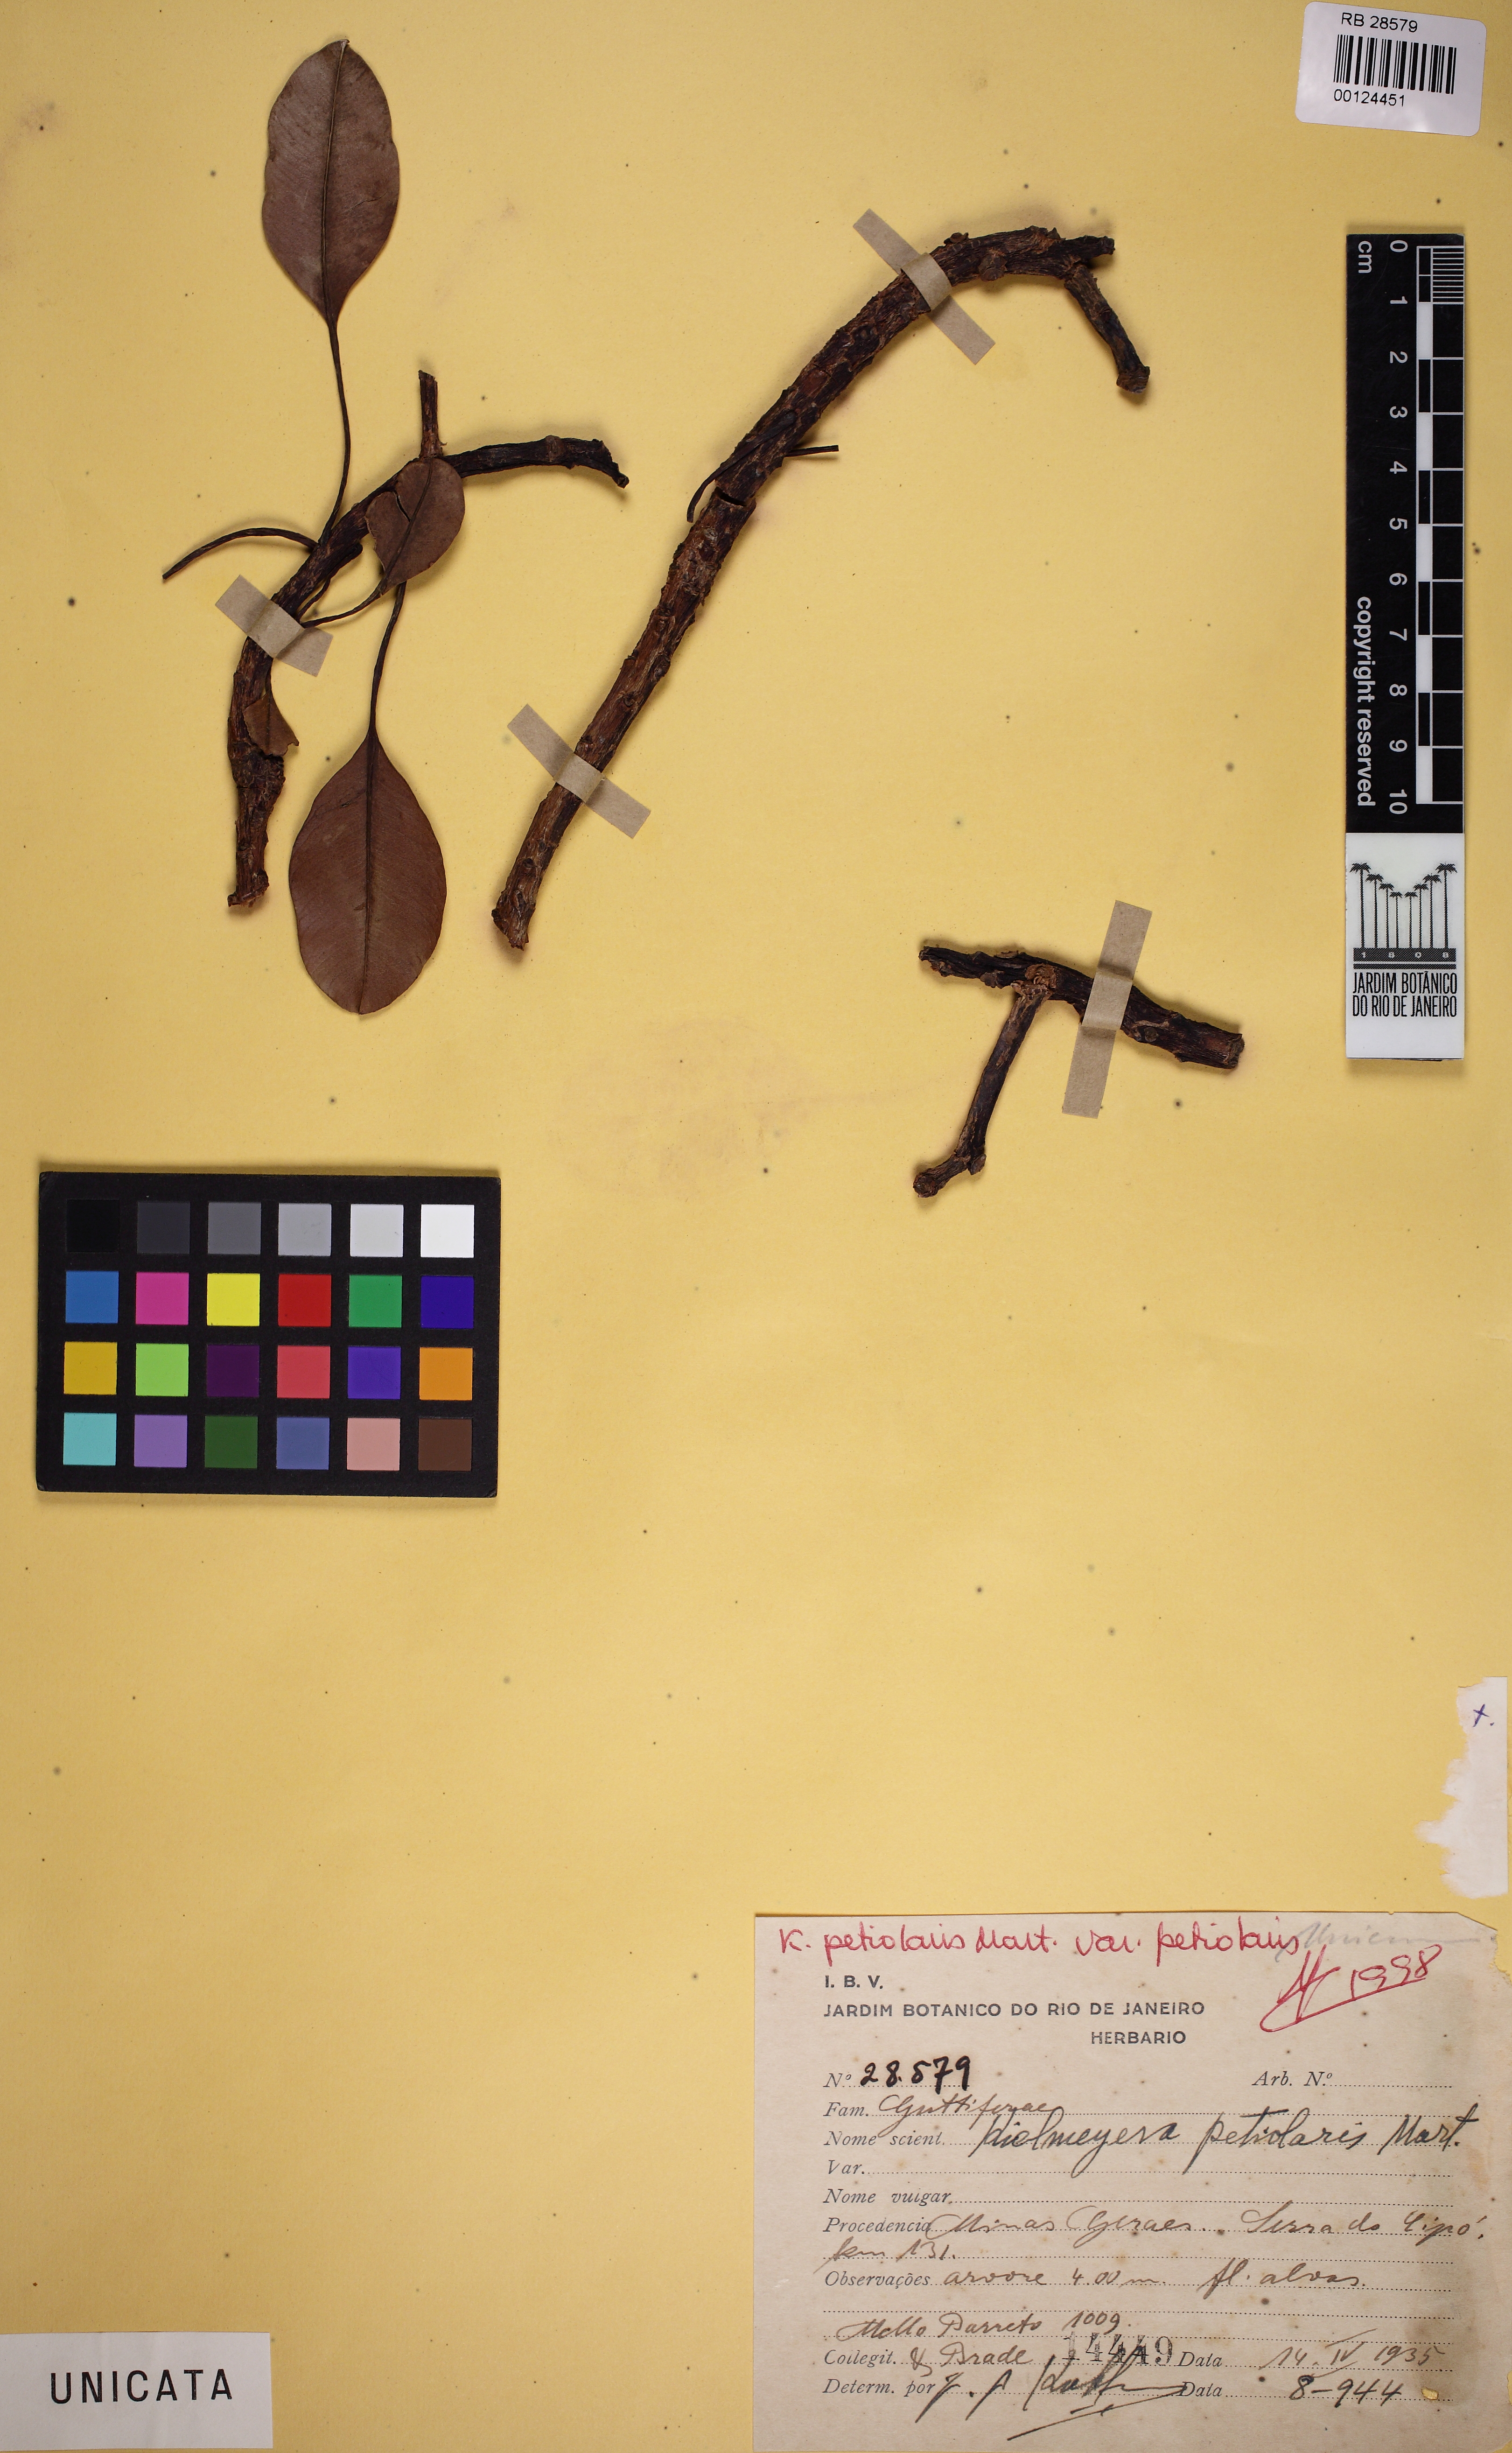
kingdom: Plantae
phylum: Tracheophyta
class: Magnoliopsida
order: Malpighiales
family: Calophyllaceae
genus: Kielmeyera
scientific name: Kielmeyera petiolaris
